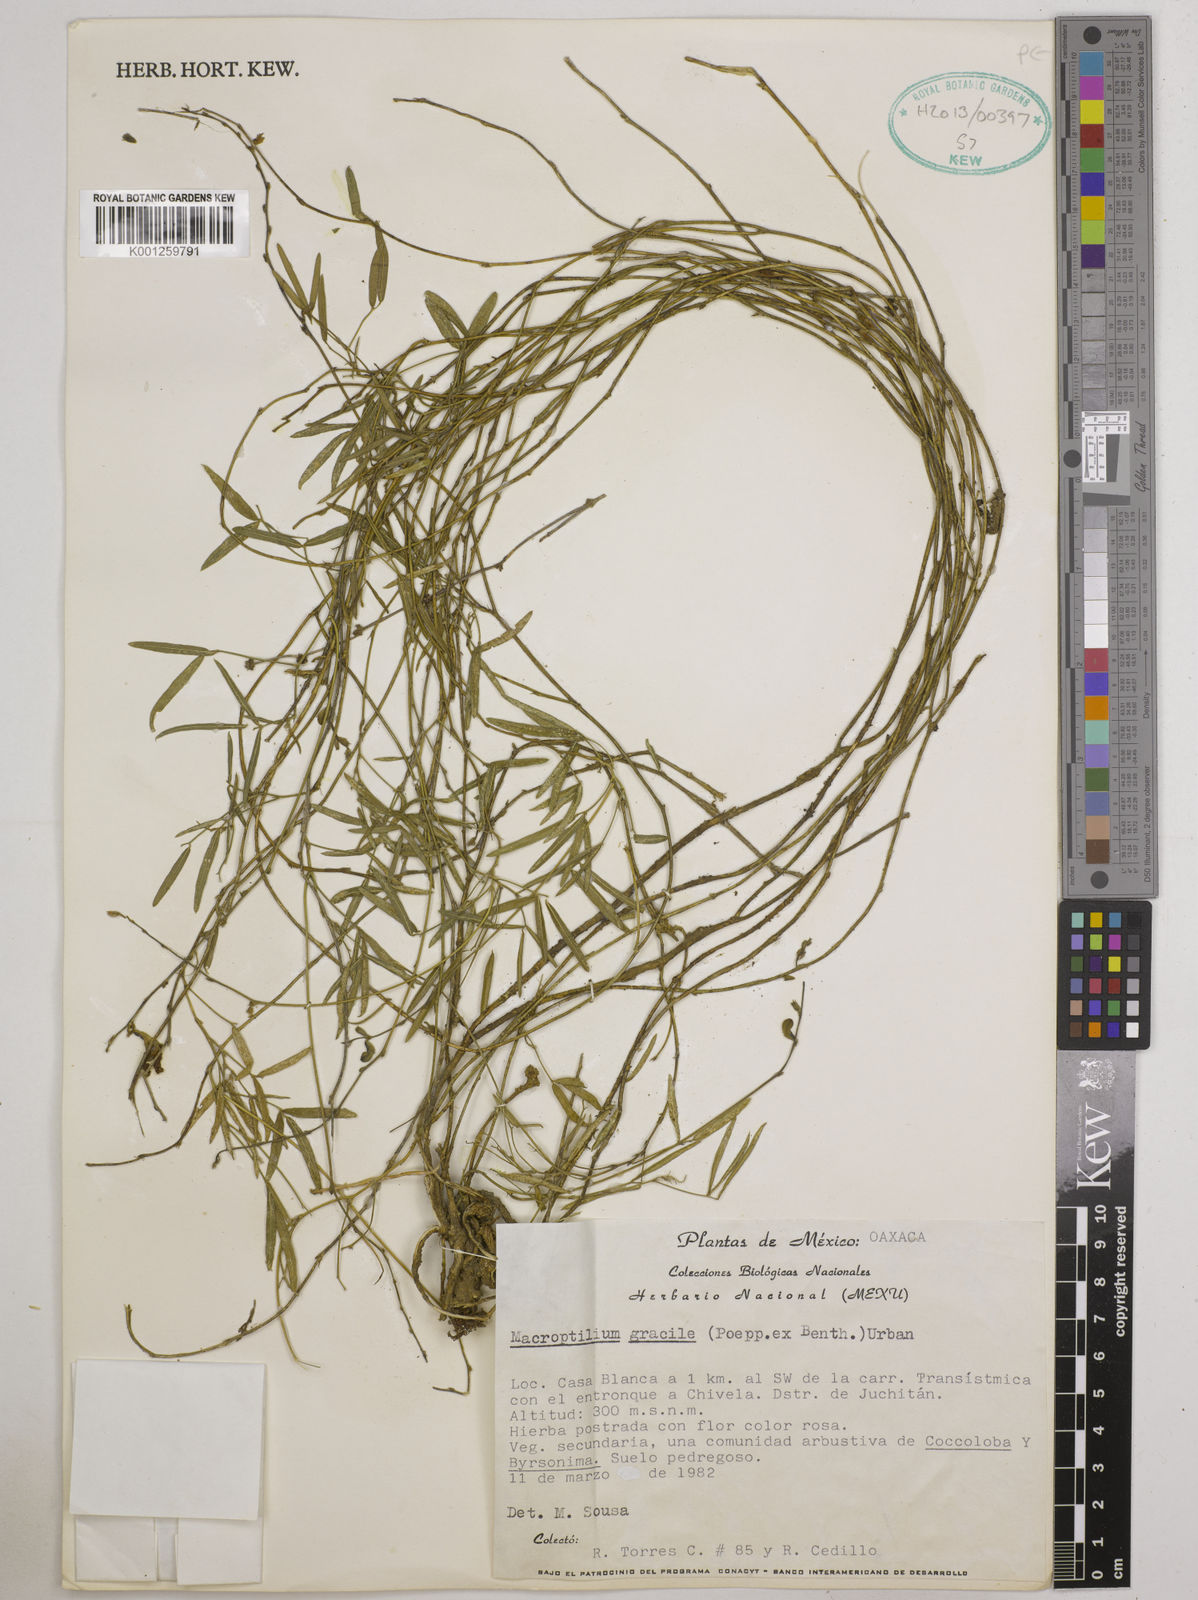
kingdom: Plantae
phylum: Tracheophyta
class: Magnoliopsida
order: Fabales
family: Fabaceae
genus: Macroptilium
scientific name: Macroptilium gracile
